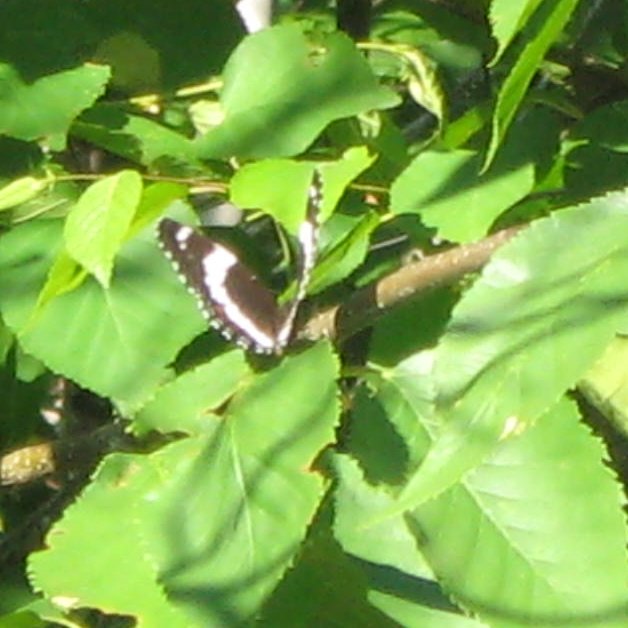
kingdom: Animalia
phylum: Arthropoda
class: Insecta
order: Lepidoptera
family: Nymphalidae
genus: Limenitis
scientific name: Limenitis arthemis
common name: Red-spotted Admiral
